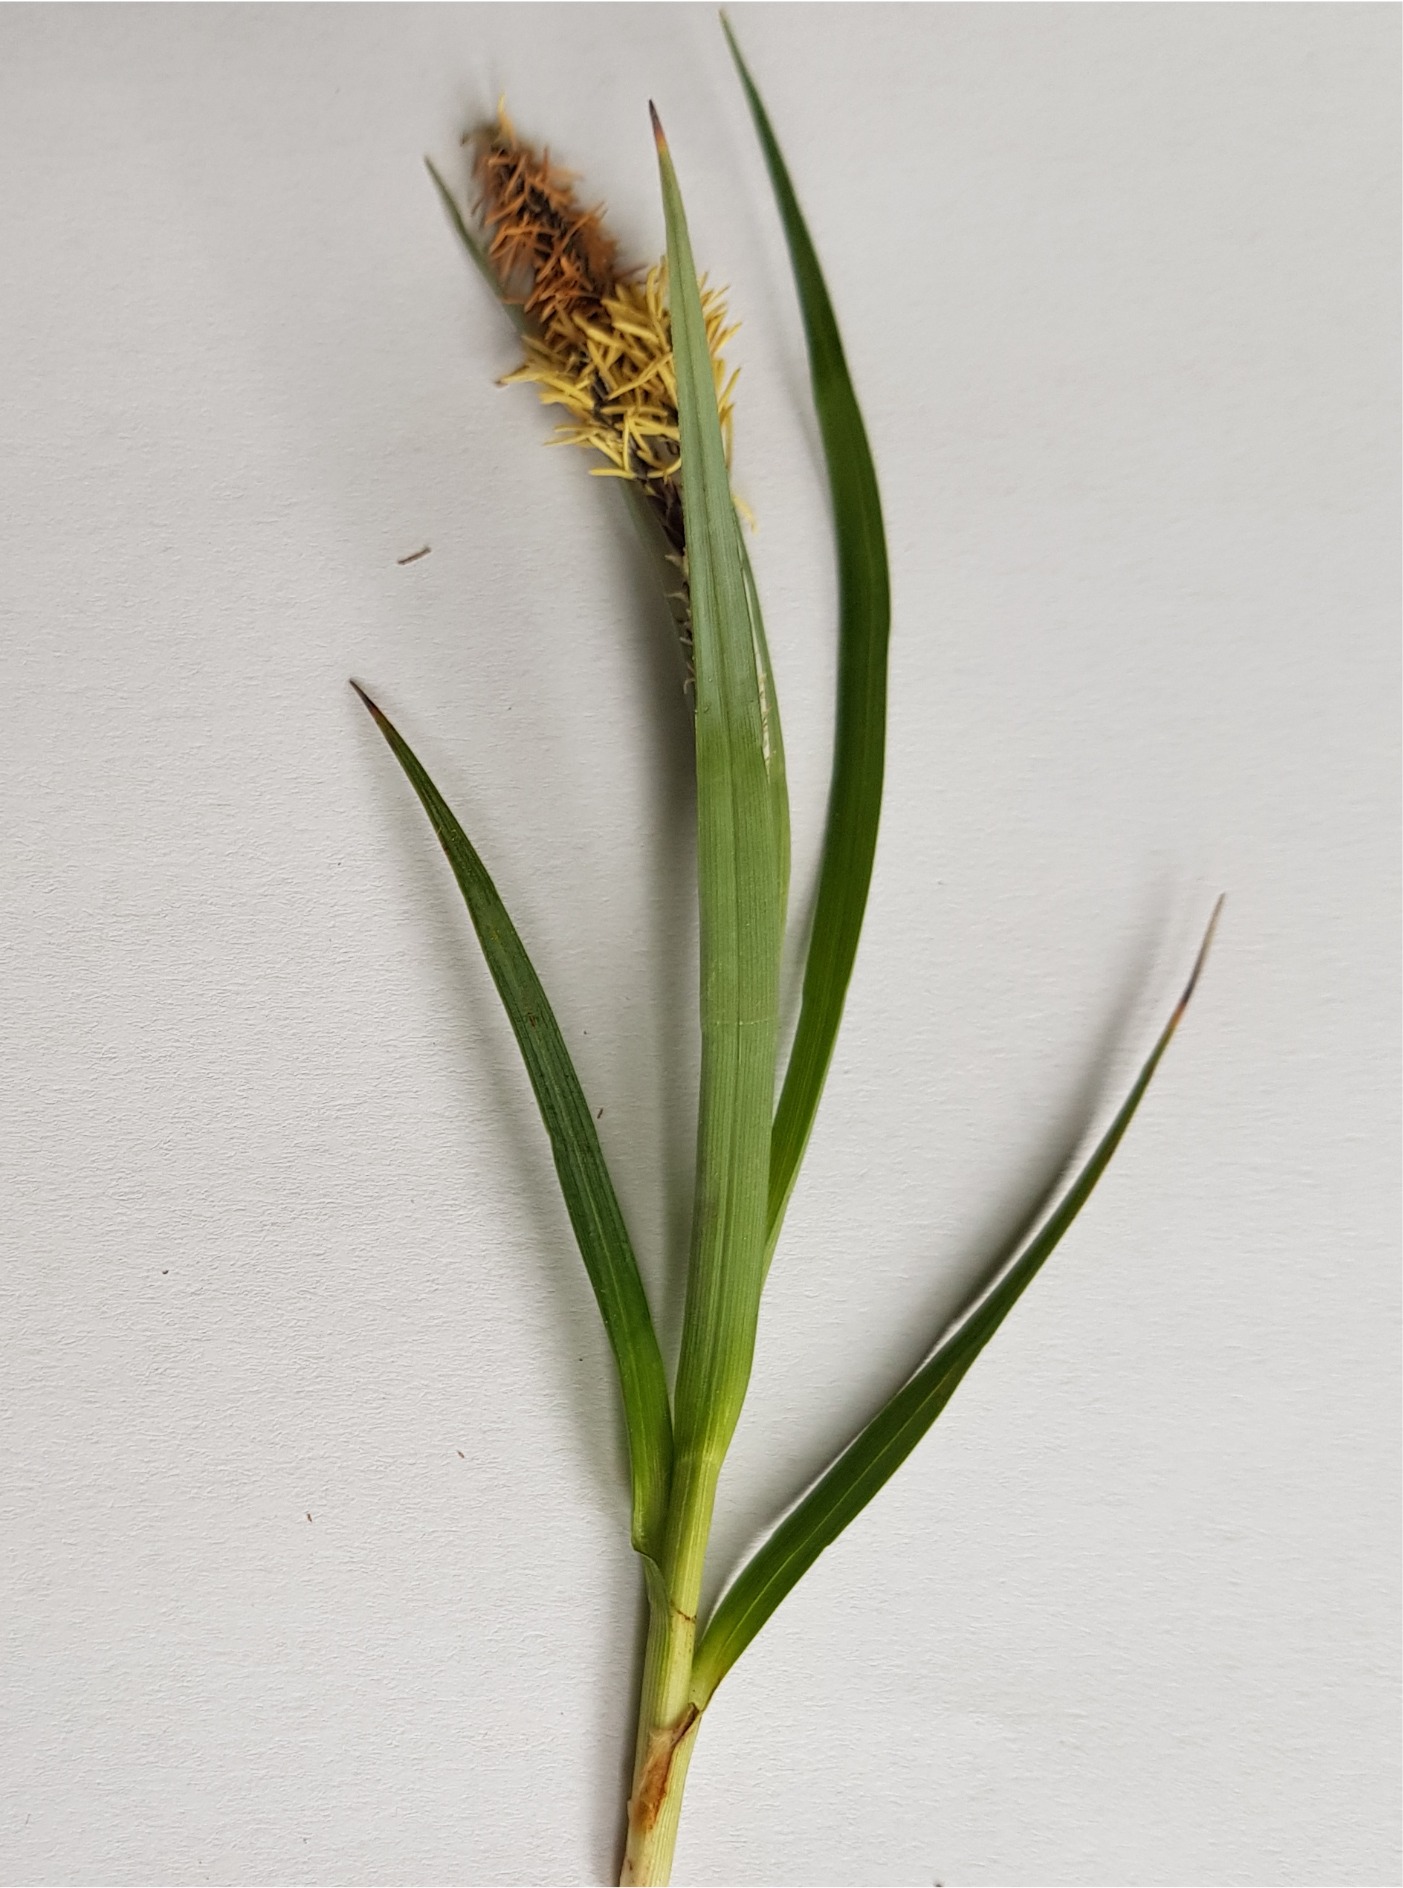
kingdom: Plantae
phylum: Tracheophyta
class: Liliopsida
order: Poales
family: Cyperaceae
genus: Carex
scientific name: Carex flacca
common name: Blågrøn star
